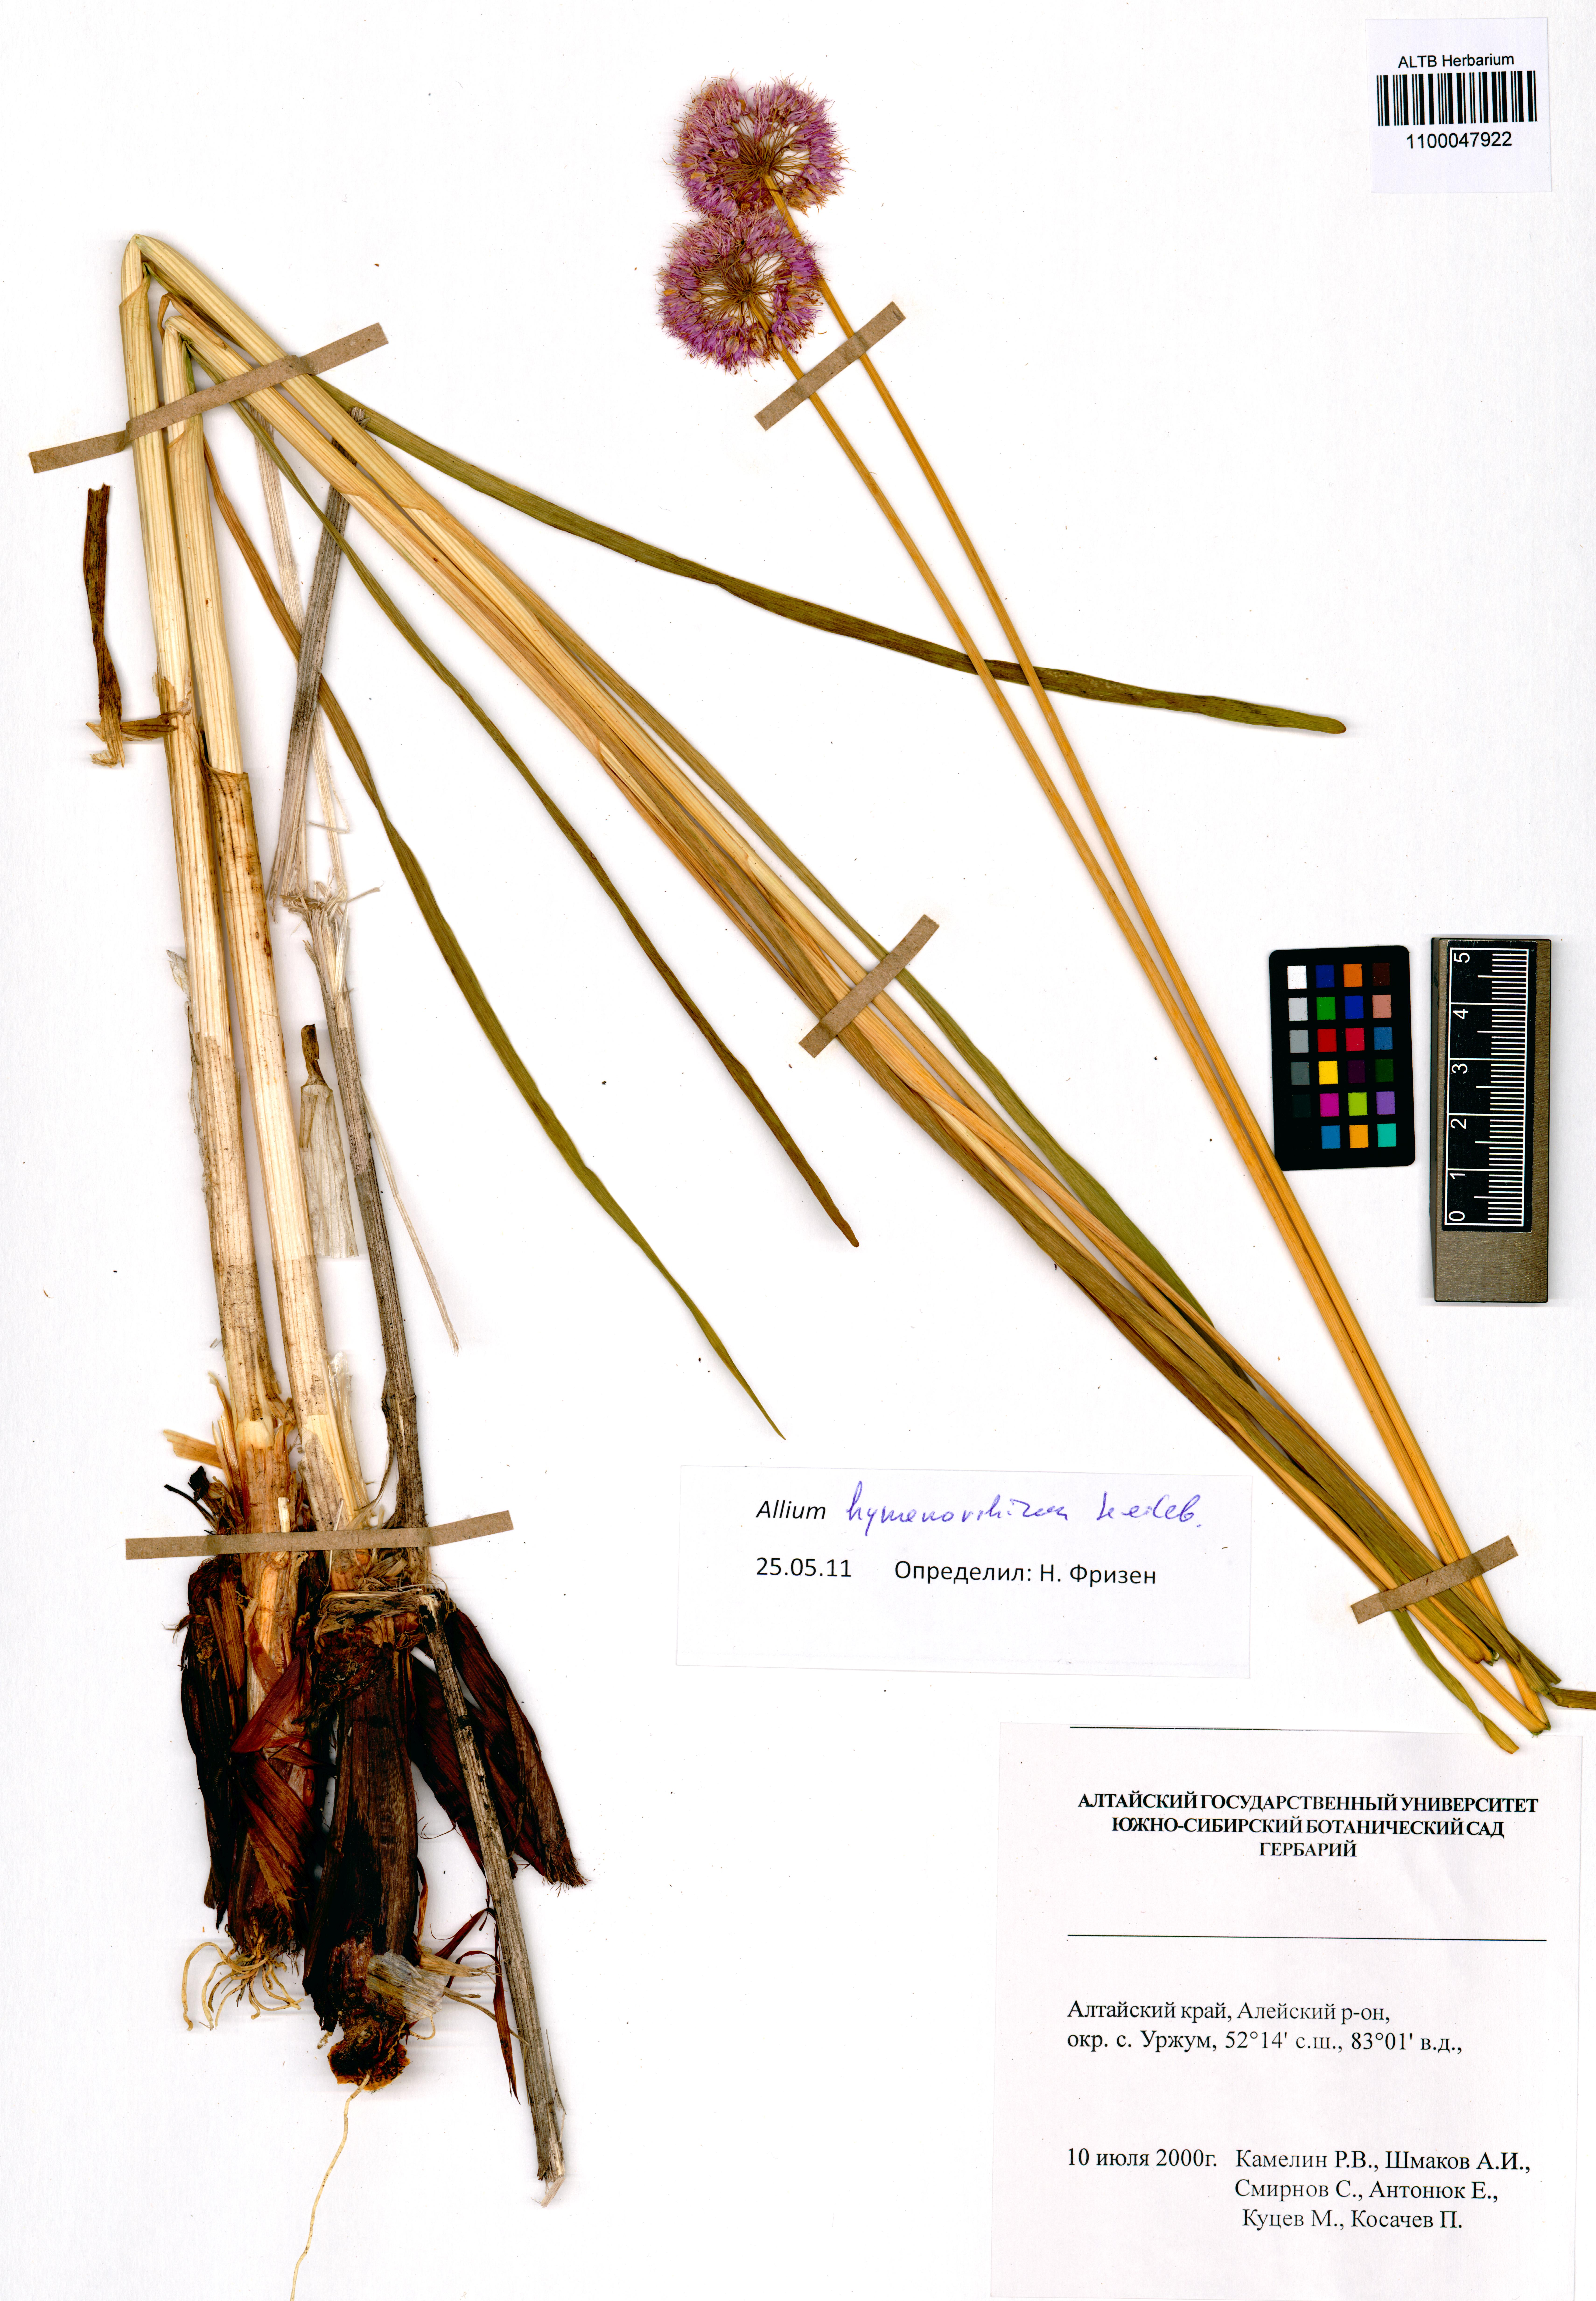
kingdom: Plantae
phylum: Tracheophyta
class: Liliopsida
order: Asparagales
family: Amaryllidaceae
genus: Allium
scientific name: Allium hymenorhizum
